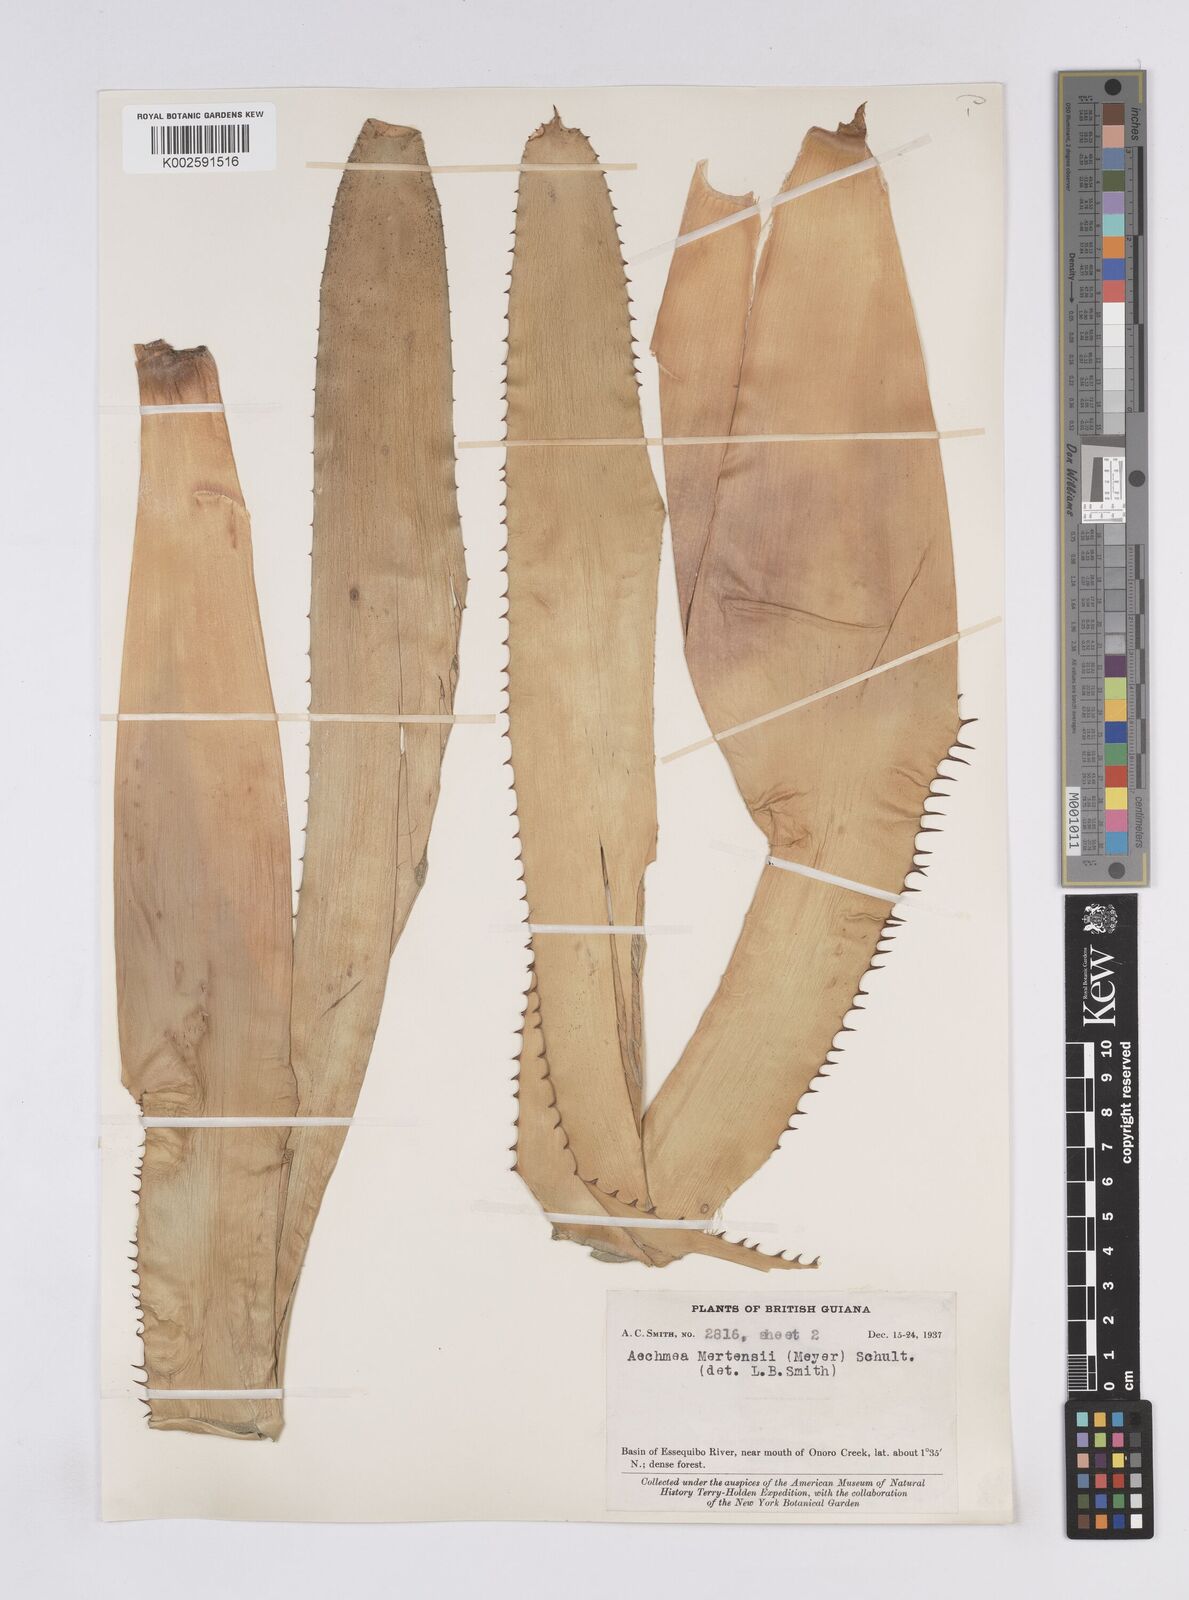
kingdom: Plantae
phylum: Tracheophyta
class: Liliopsida
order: Poales
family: Bromeliaceae
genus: Aechmea
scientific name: Aechmea mertensii
